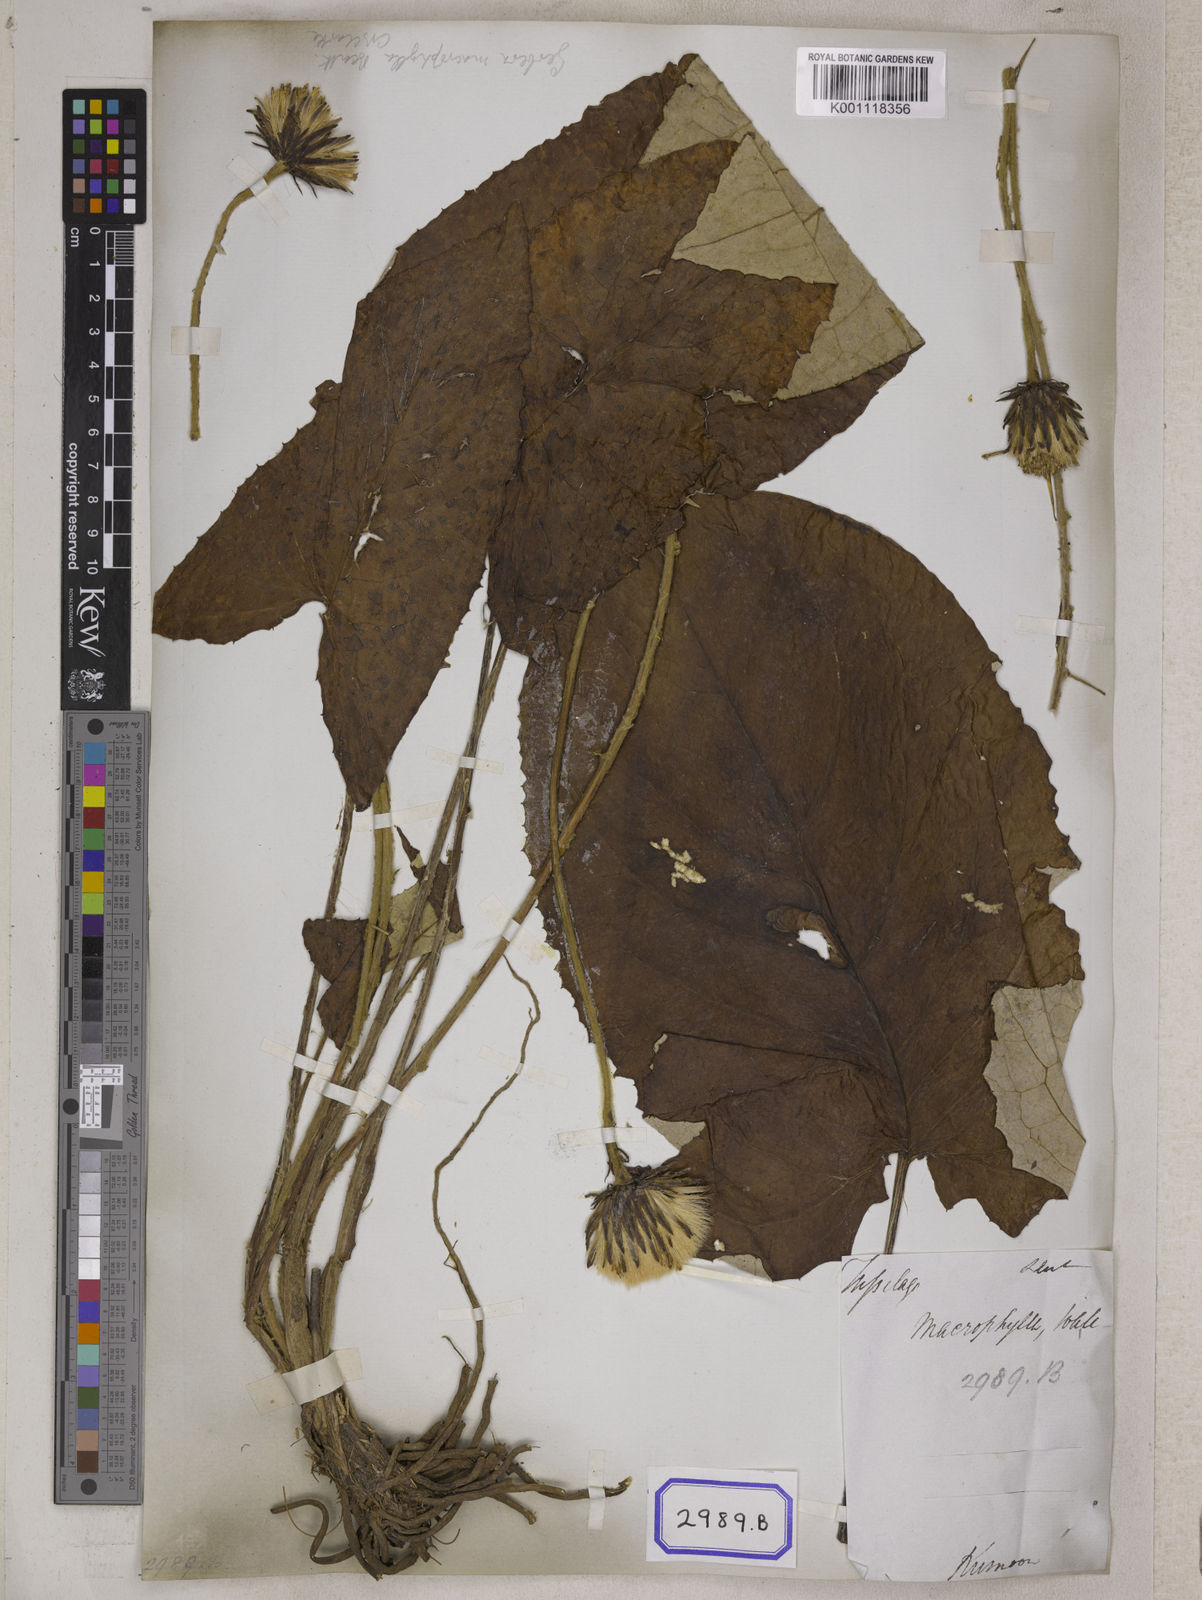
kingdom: Plantae
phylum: Tracheophyta
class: Magnoliopsida
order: Asterales
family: Asteraceae
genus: Oreoseris
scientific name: Oreoseris maxima
